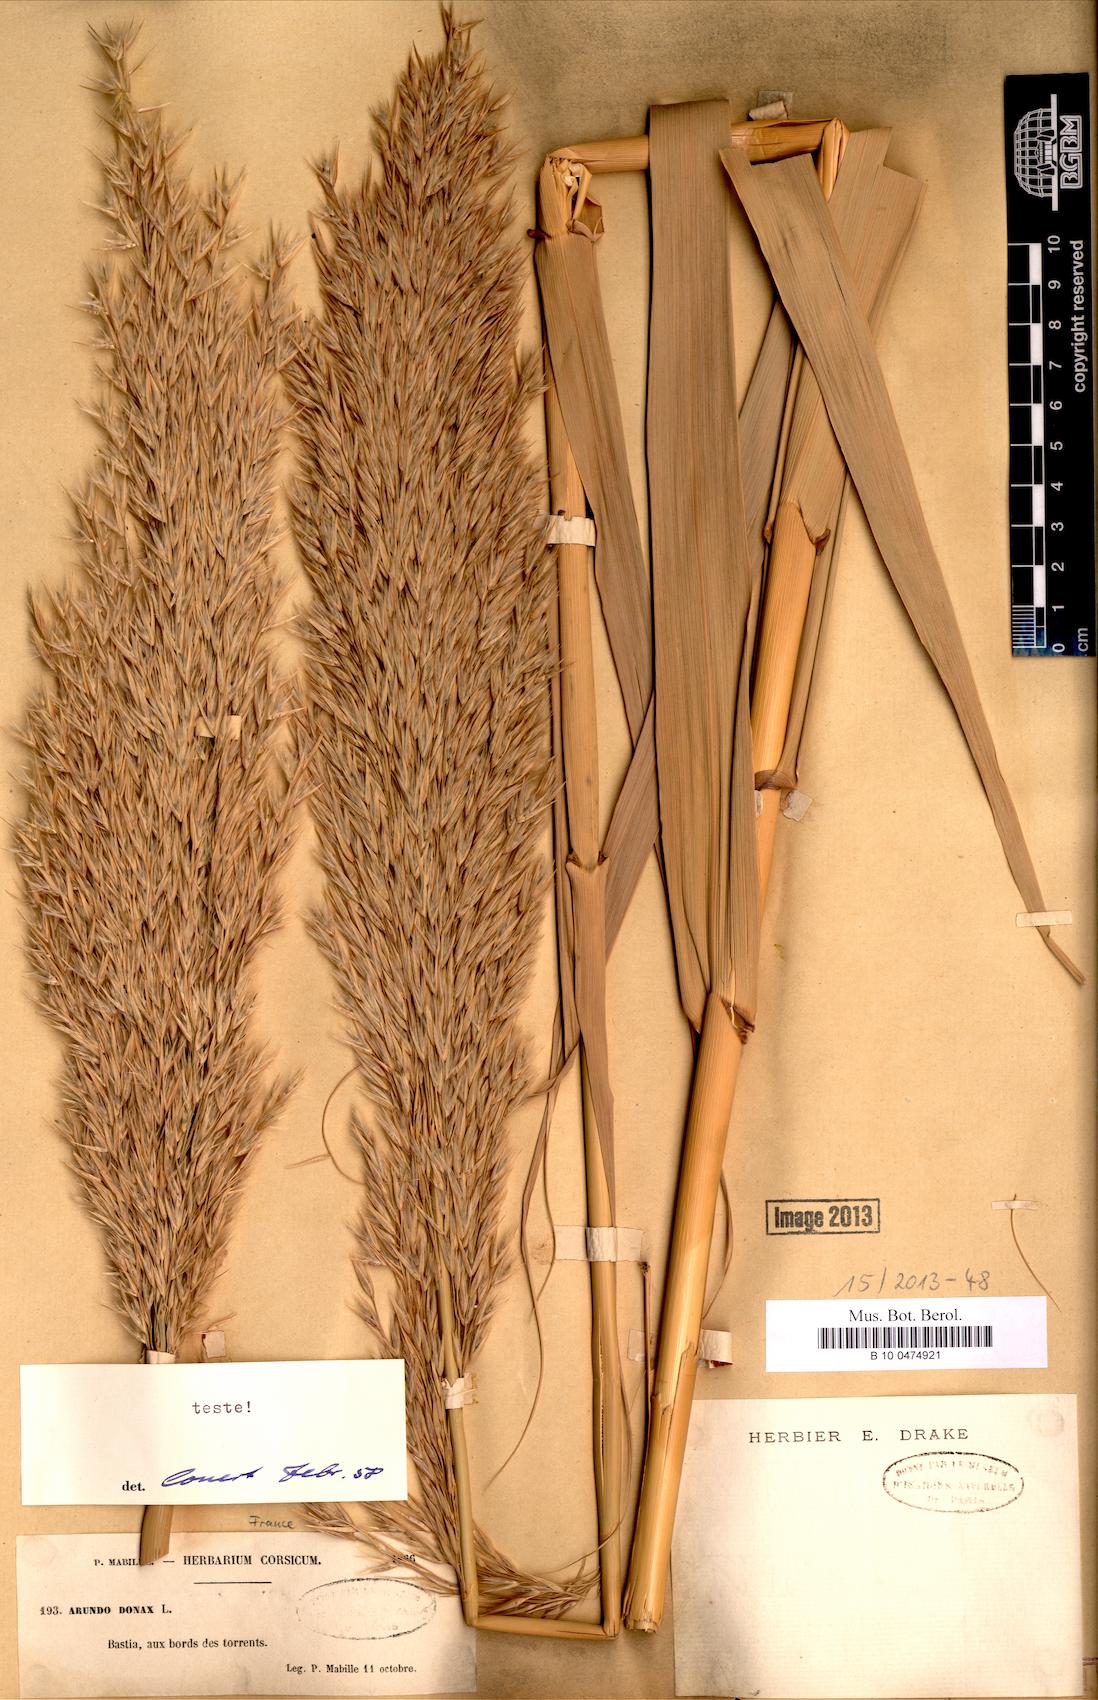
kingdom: Plantae
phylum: Tracheophyta
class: Liliopsida
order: Poales
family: Poaceae
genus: Arundo
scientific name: Arundo donax
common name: Giant reed
